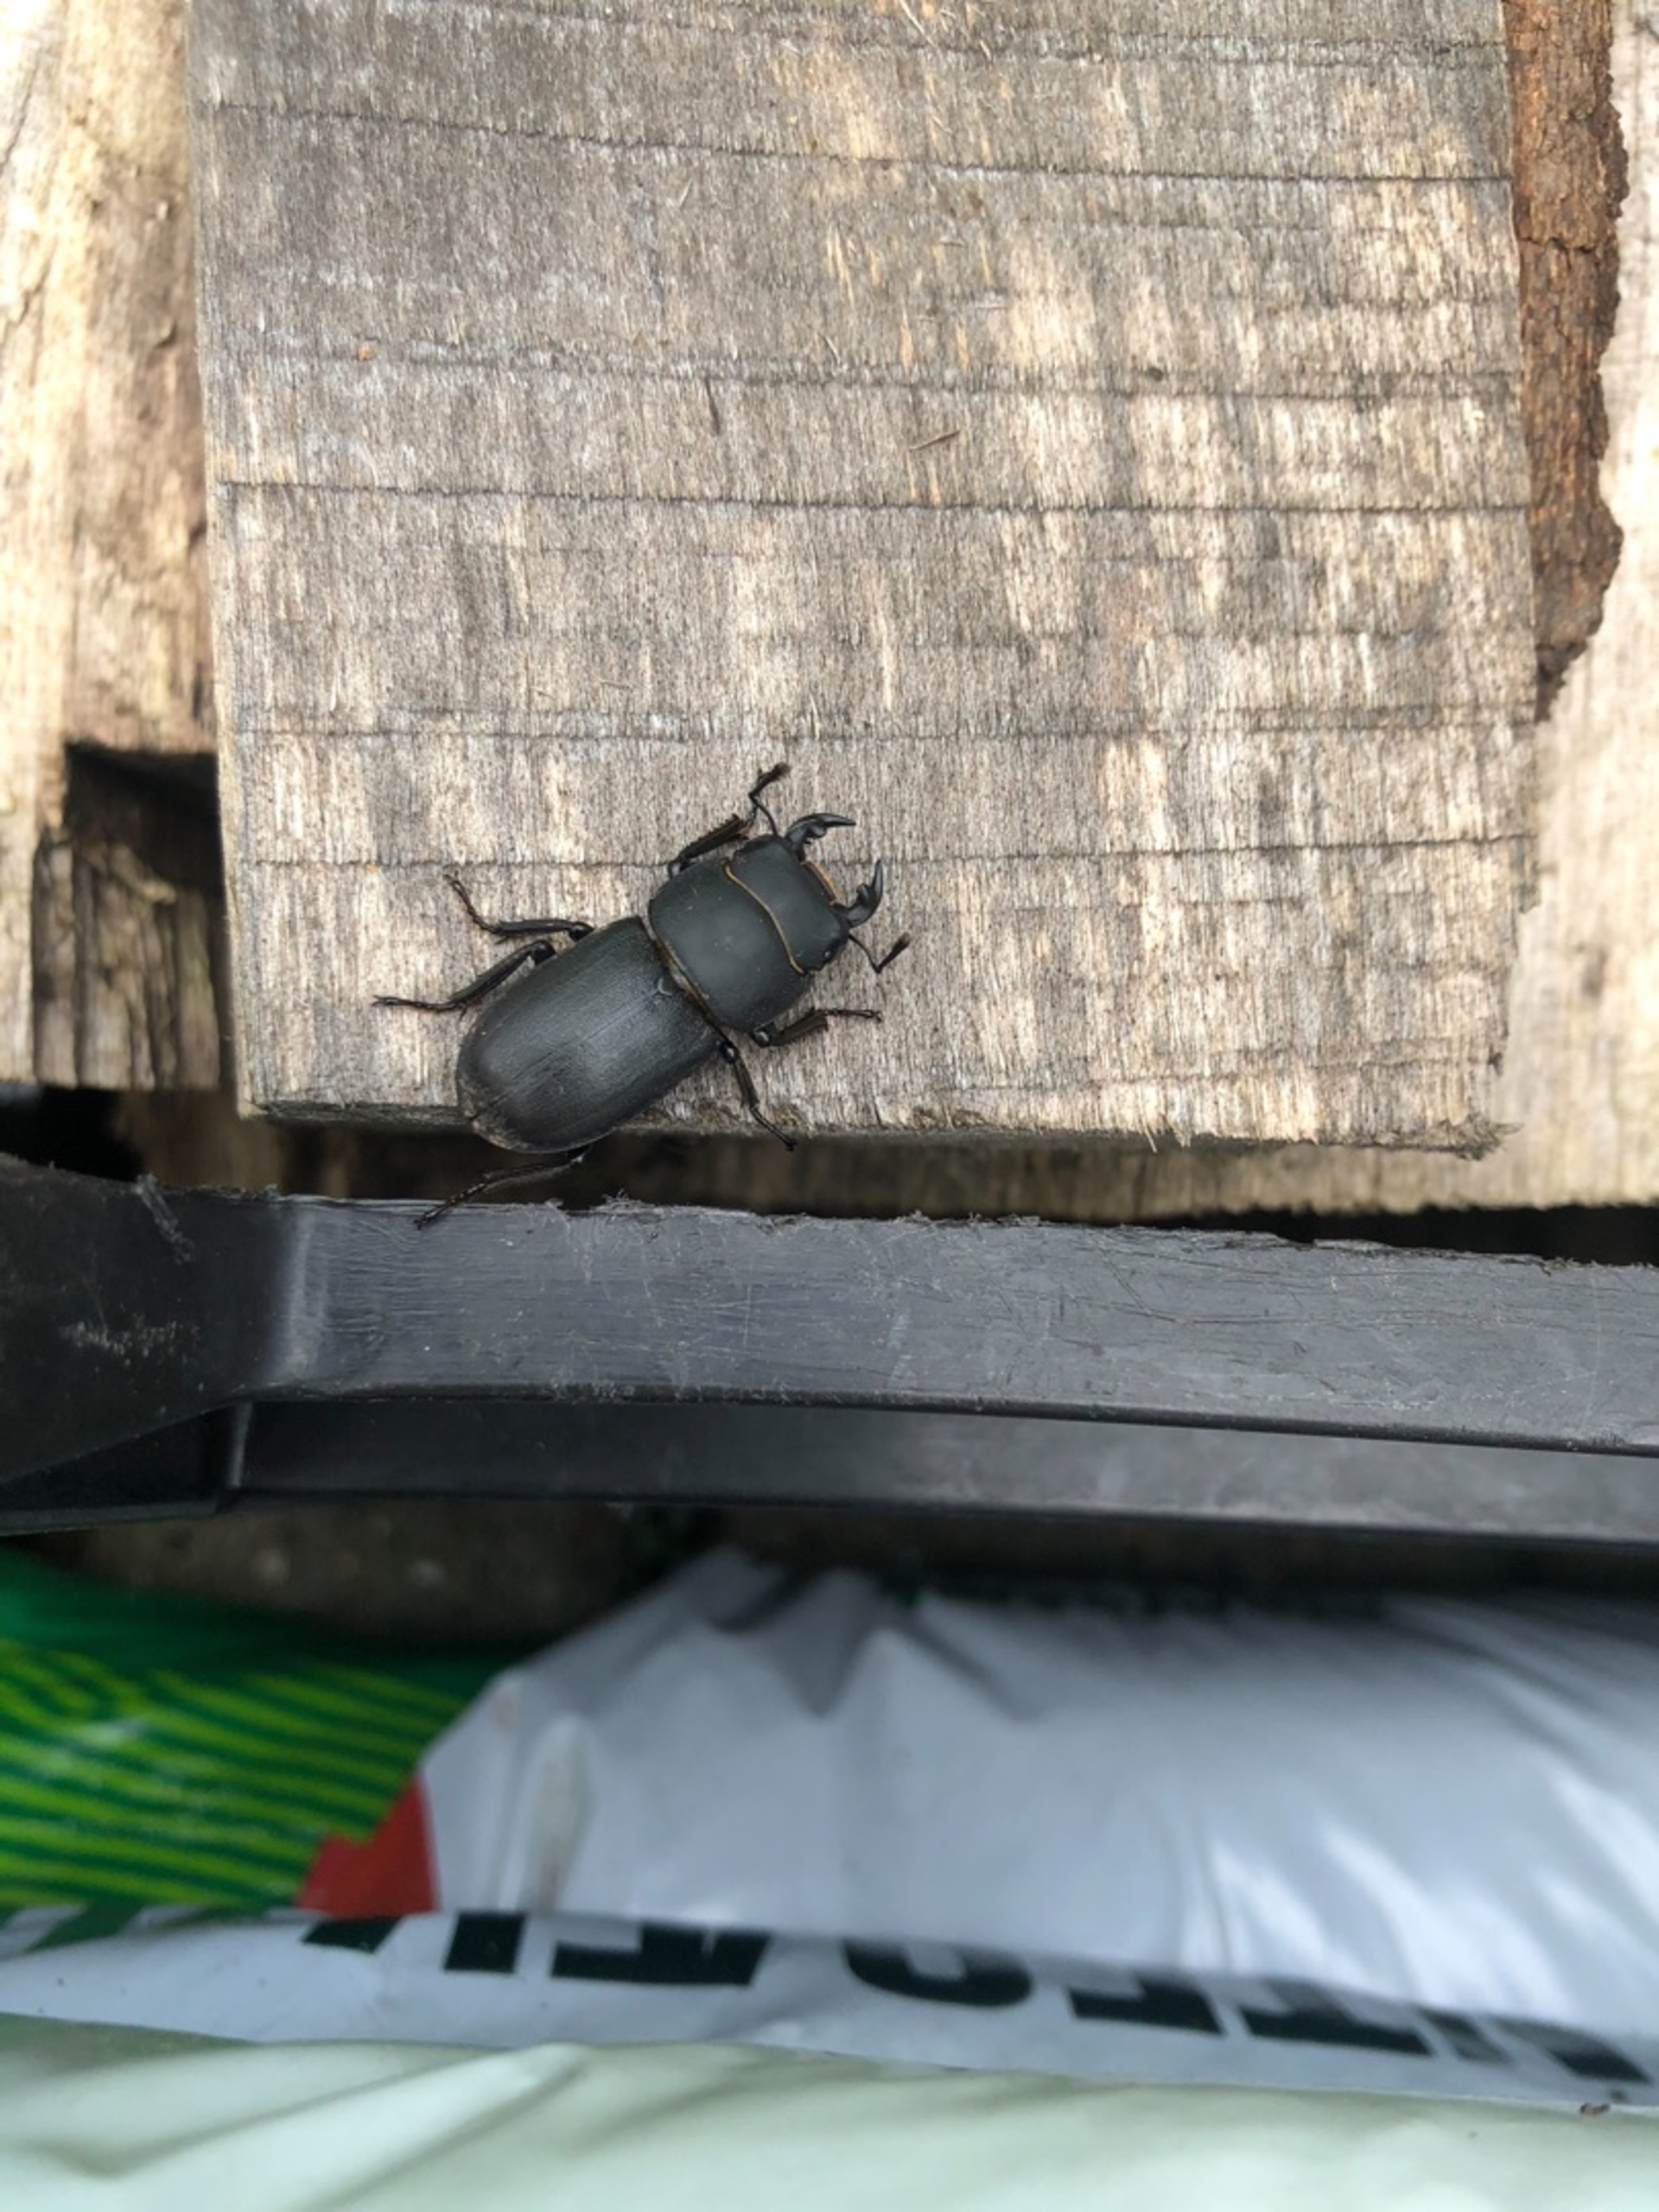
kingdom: Animalia
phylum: Arthropoda
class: Insecta
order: Coleoptera
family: Lucanidae
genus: Dorcus
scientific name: Dorcus parallelipipedus
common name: Bøghjort
